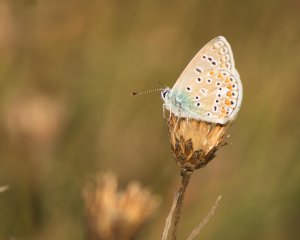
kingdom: Animalia
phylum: Arthropoda
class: Insecta
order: Lepidoptera
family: Lycaenidae
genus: Polyommatus
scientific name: Polyommatus icarus
